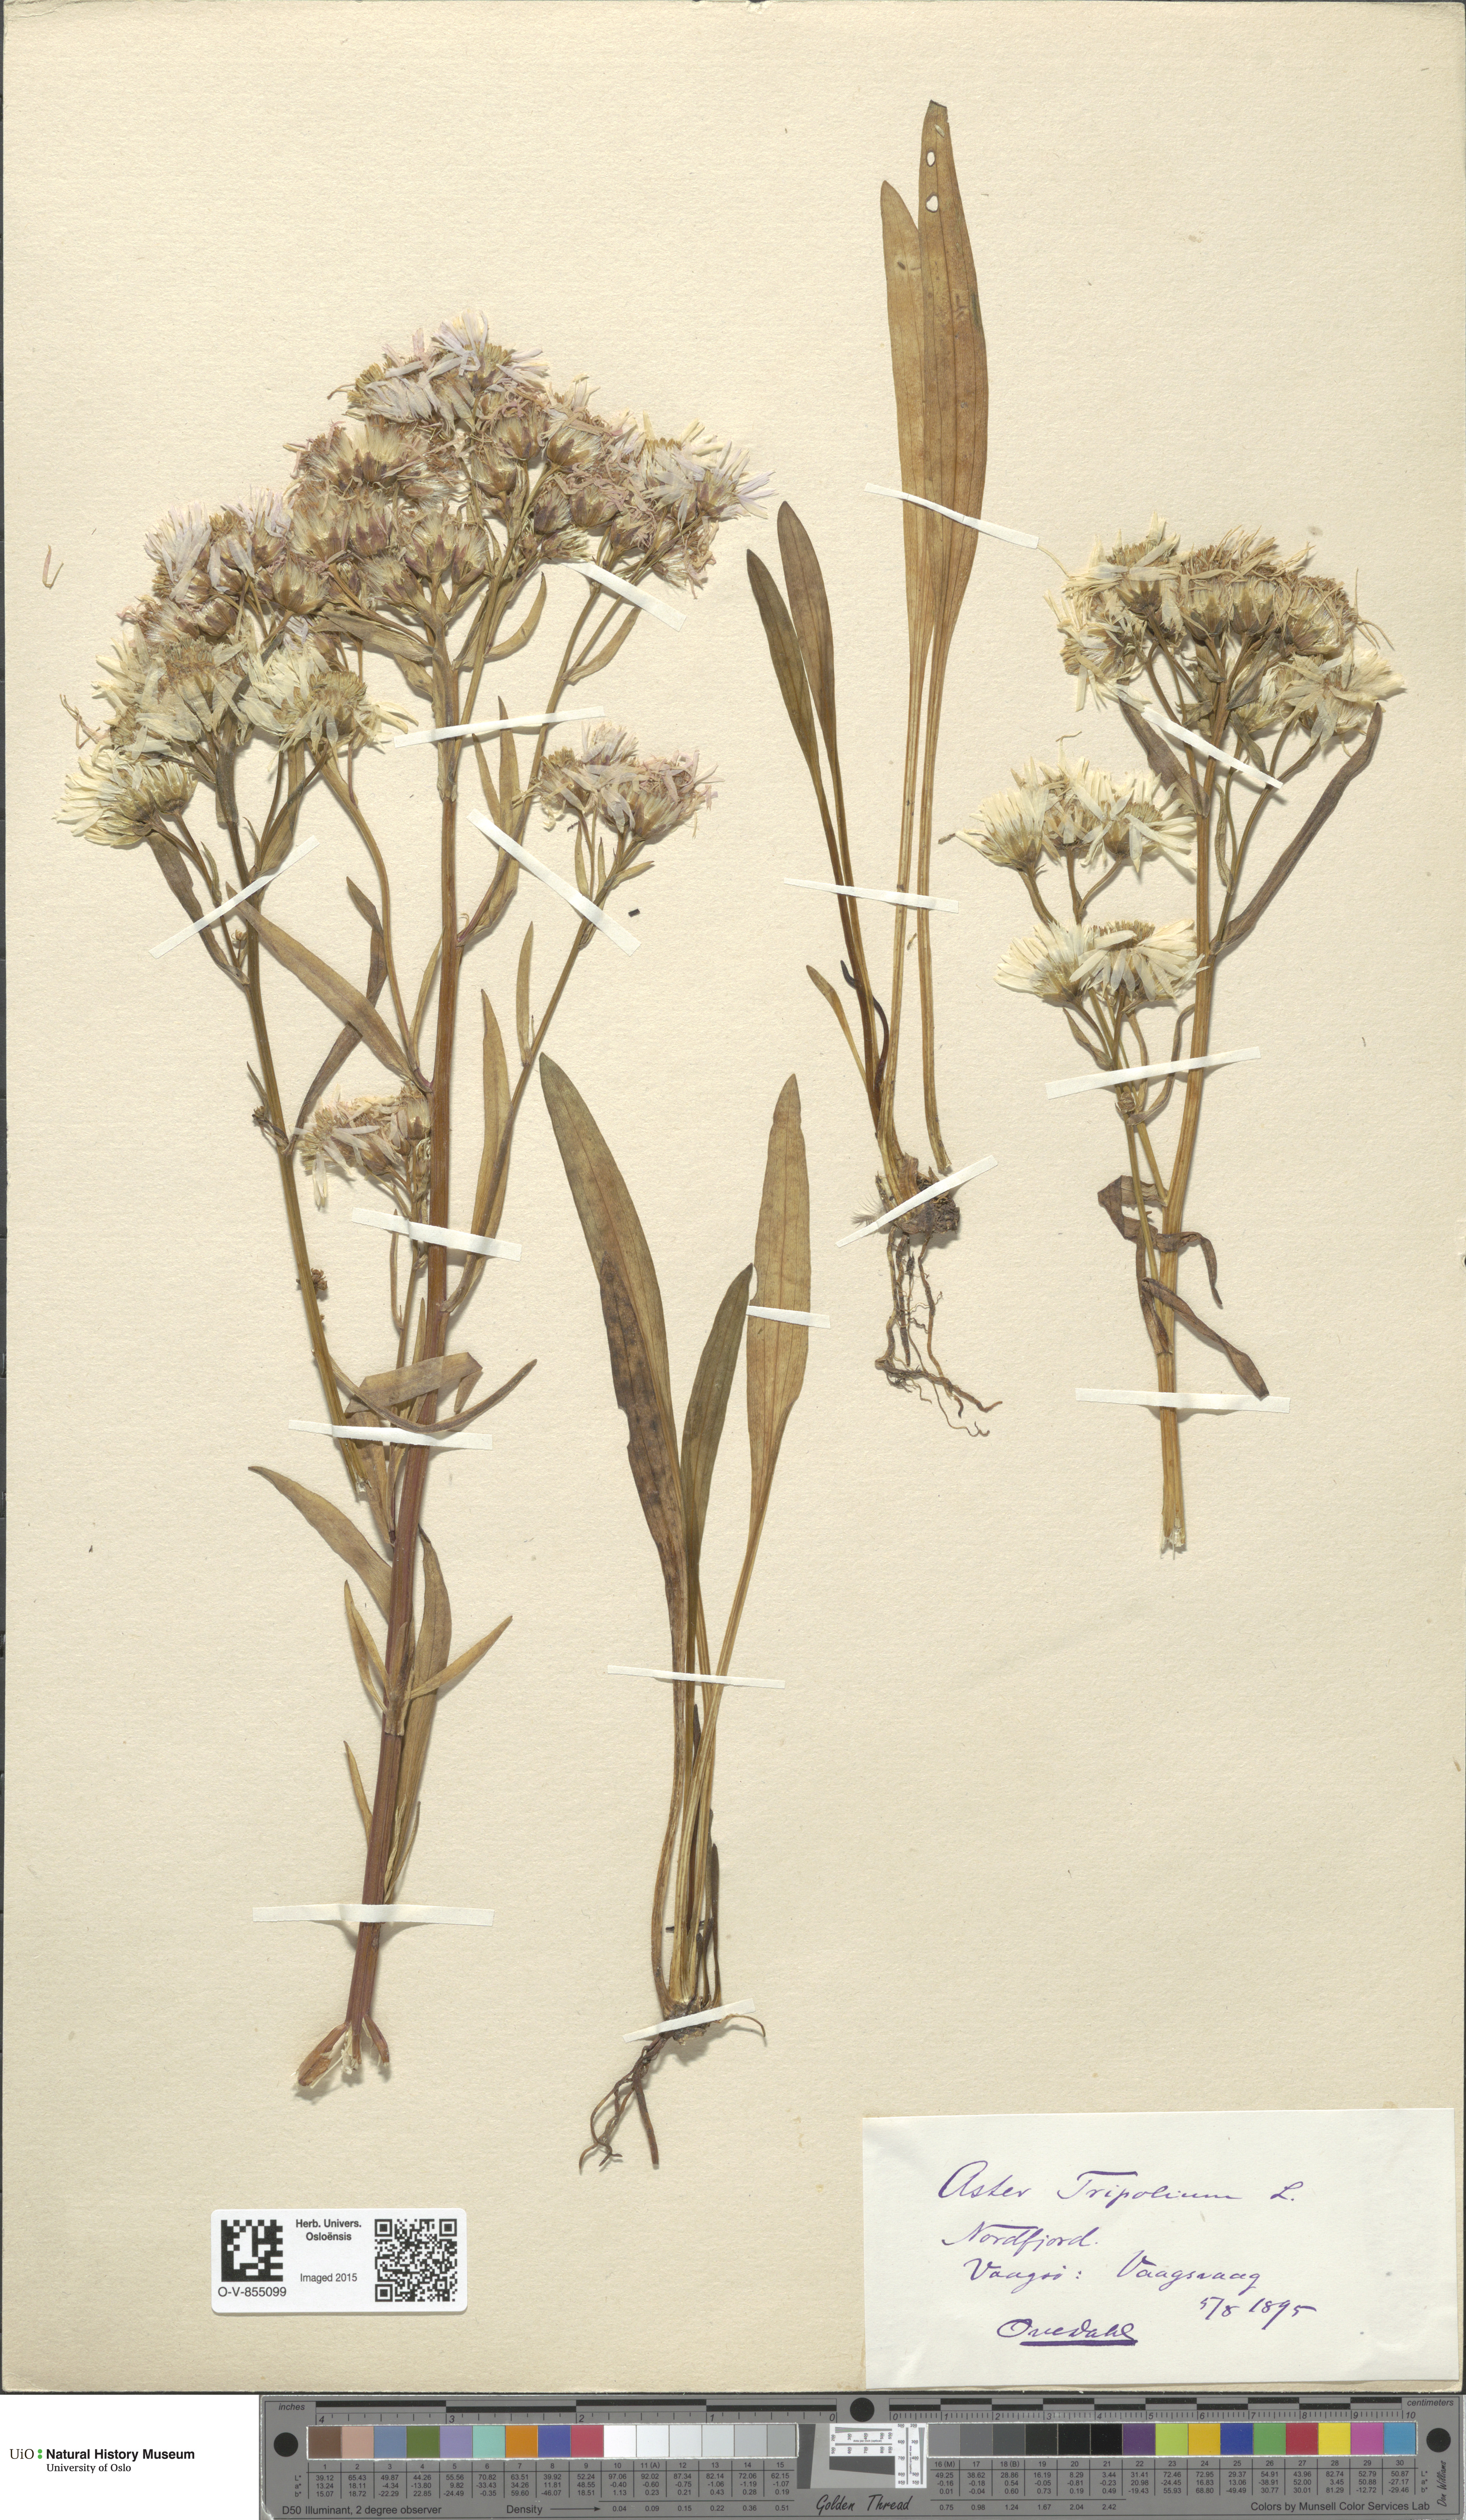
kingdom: Plantae
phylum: Tracheophyta
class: Magnoliopsida
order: Asterales
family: Asteraceae
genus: Tripolium
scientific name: Tripolium pannonicum
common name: Sea aster
